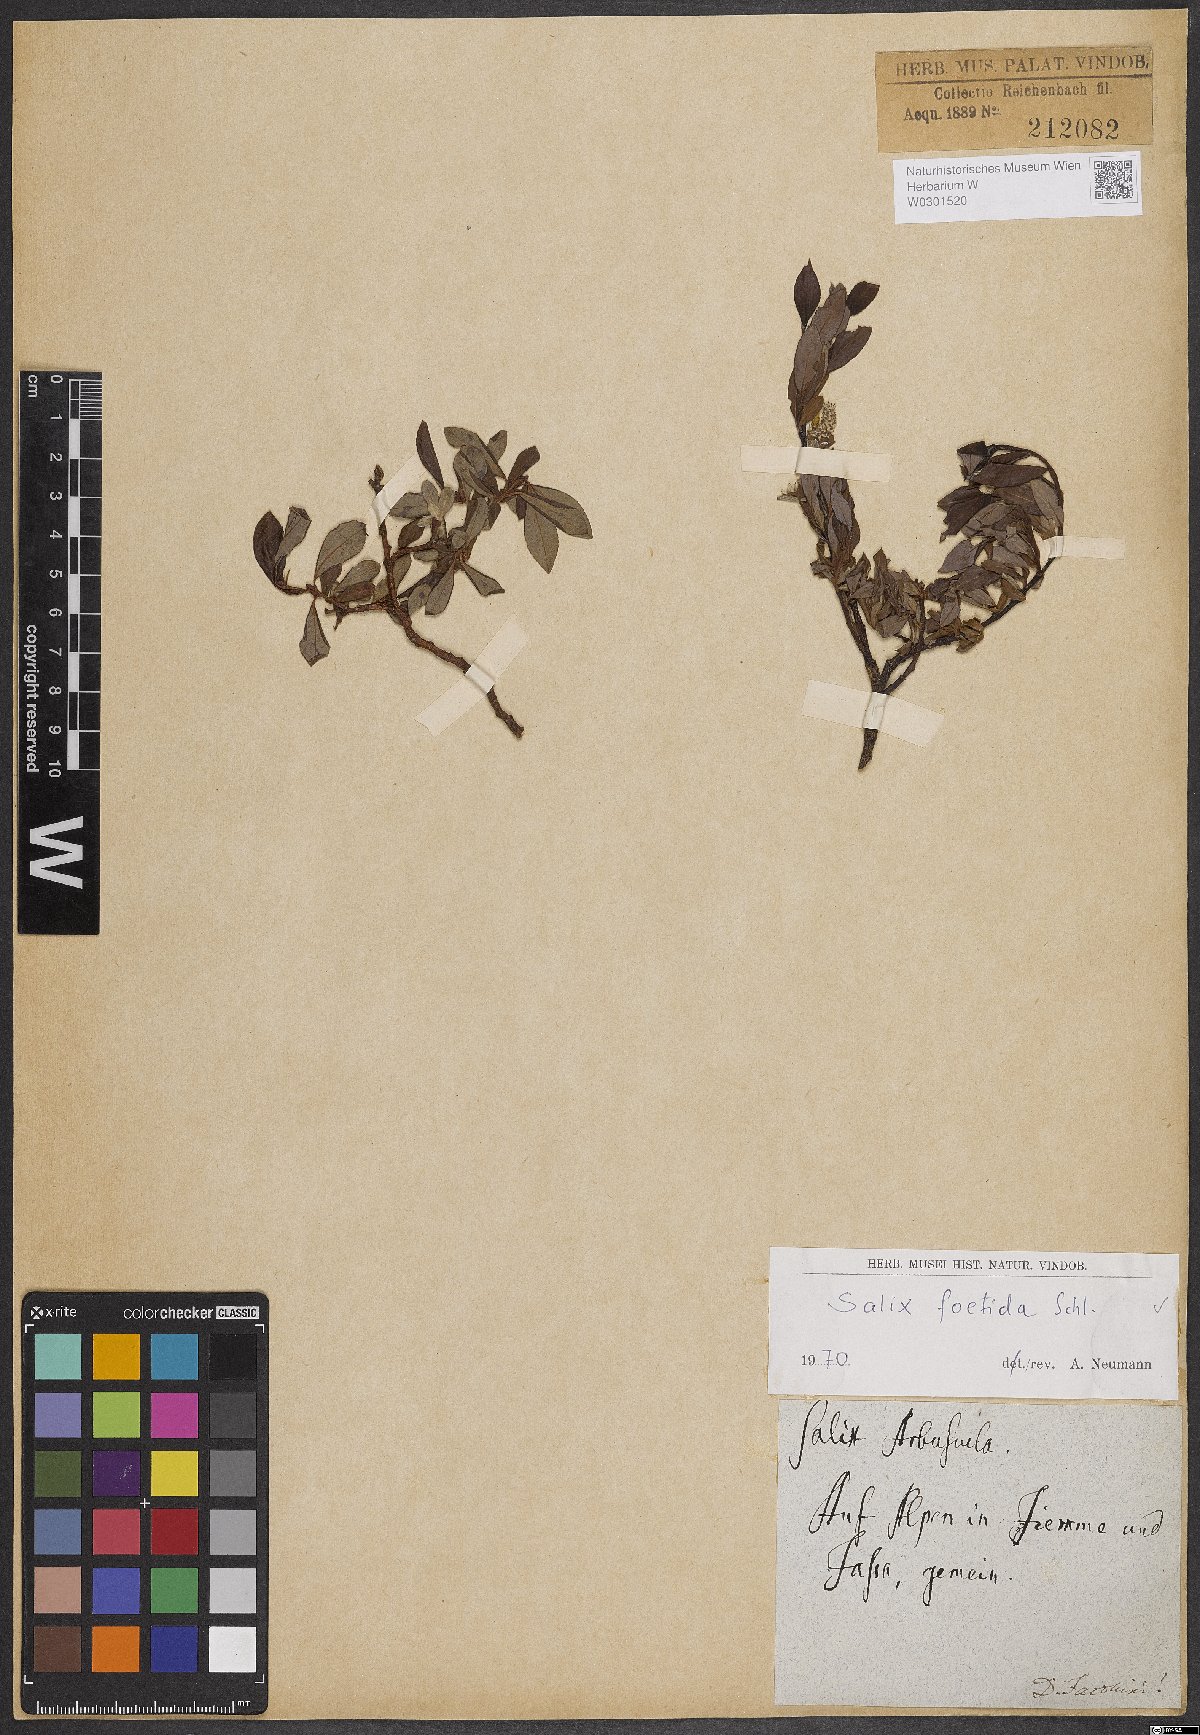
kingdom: Plantae
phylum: Tracheophyta
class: Magnoliopsida
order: Malpighiales
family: Salicaceae
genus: Salix
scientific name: Salix foetida
